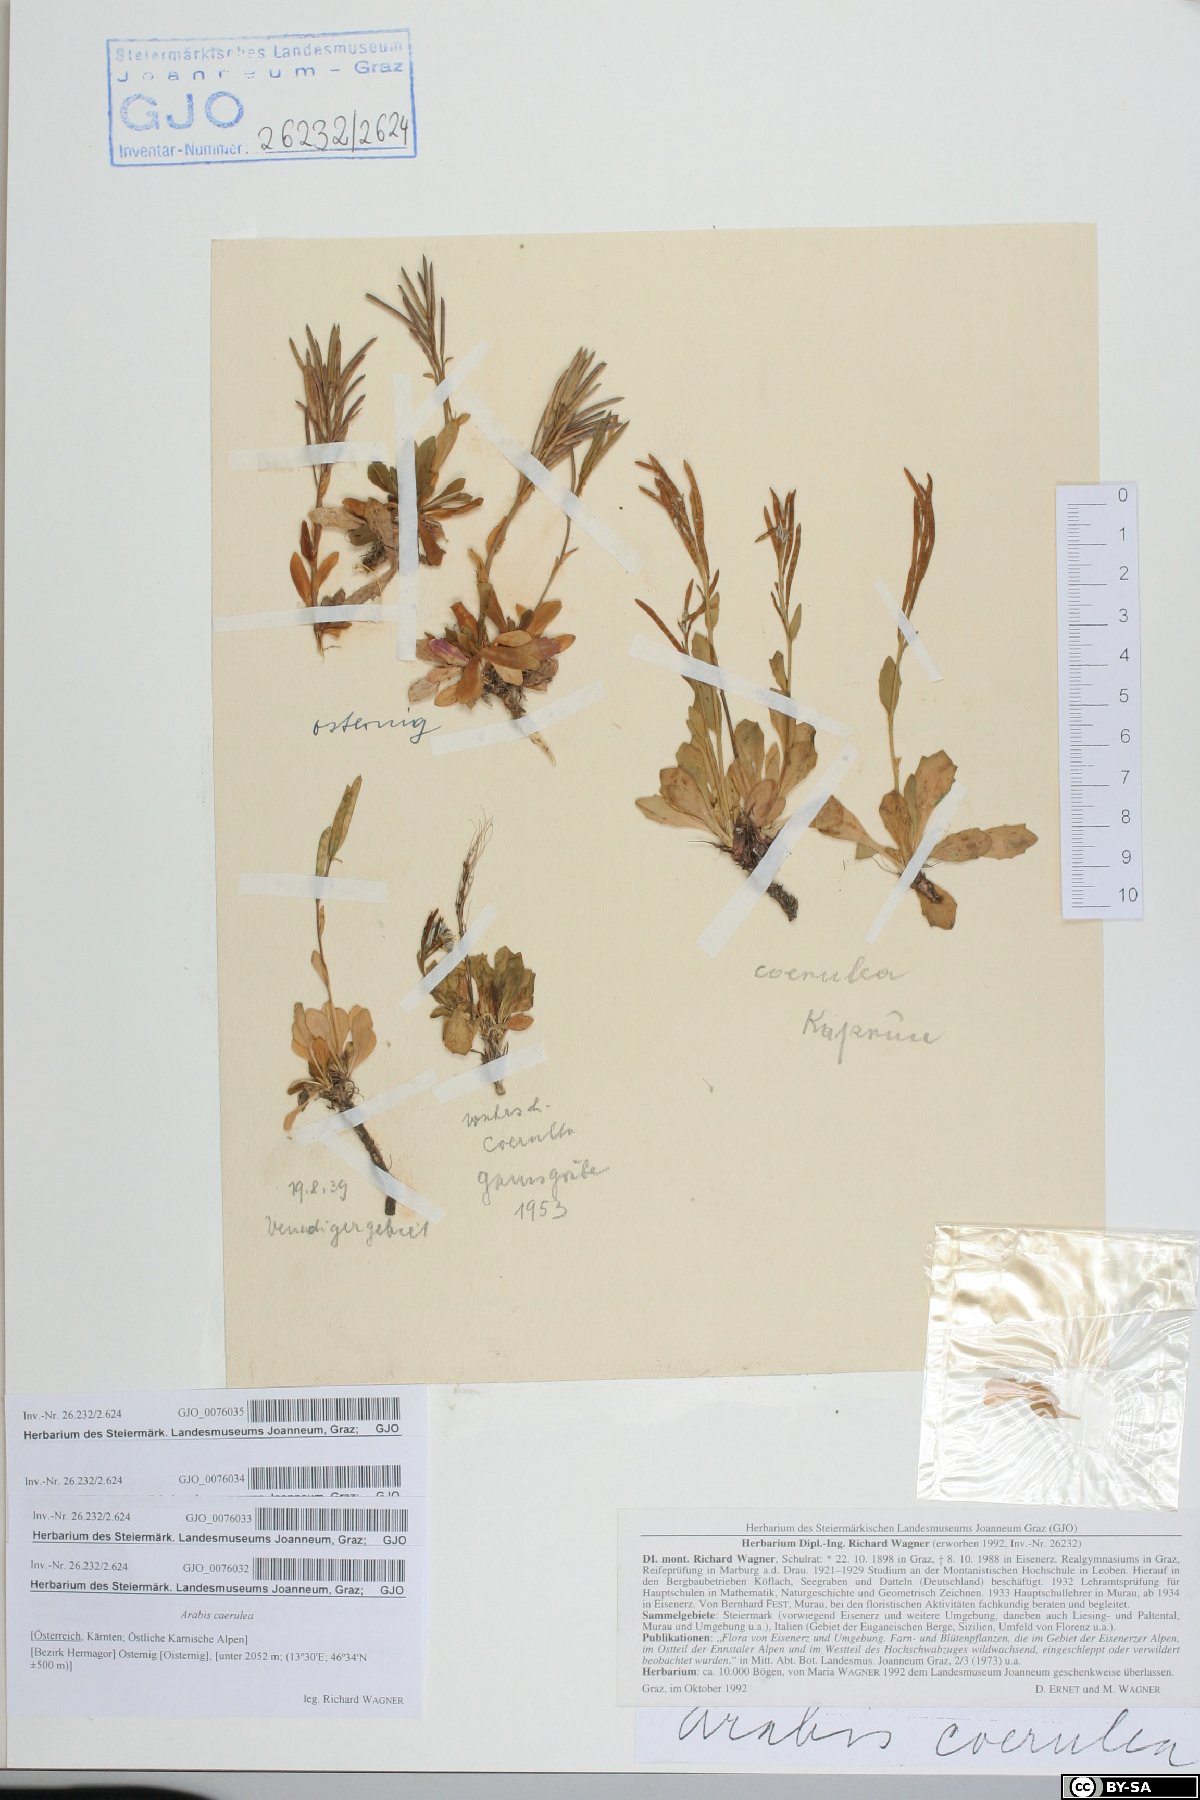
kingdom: Plantae
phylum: Tracheophyta
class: Magnoliopsida
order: Brassicales
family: Brassicaceae
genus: Arabis
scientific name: Arabis caerulea
